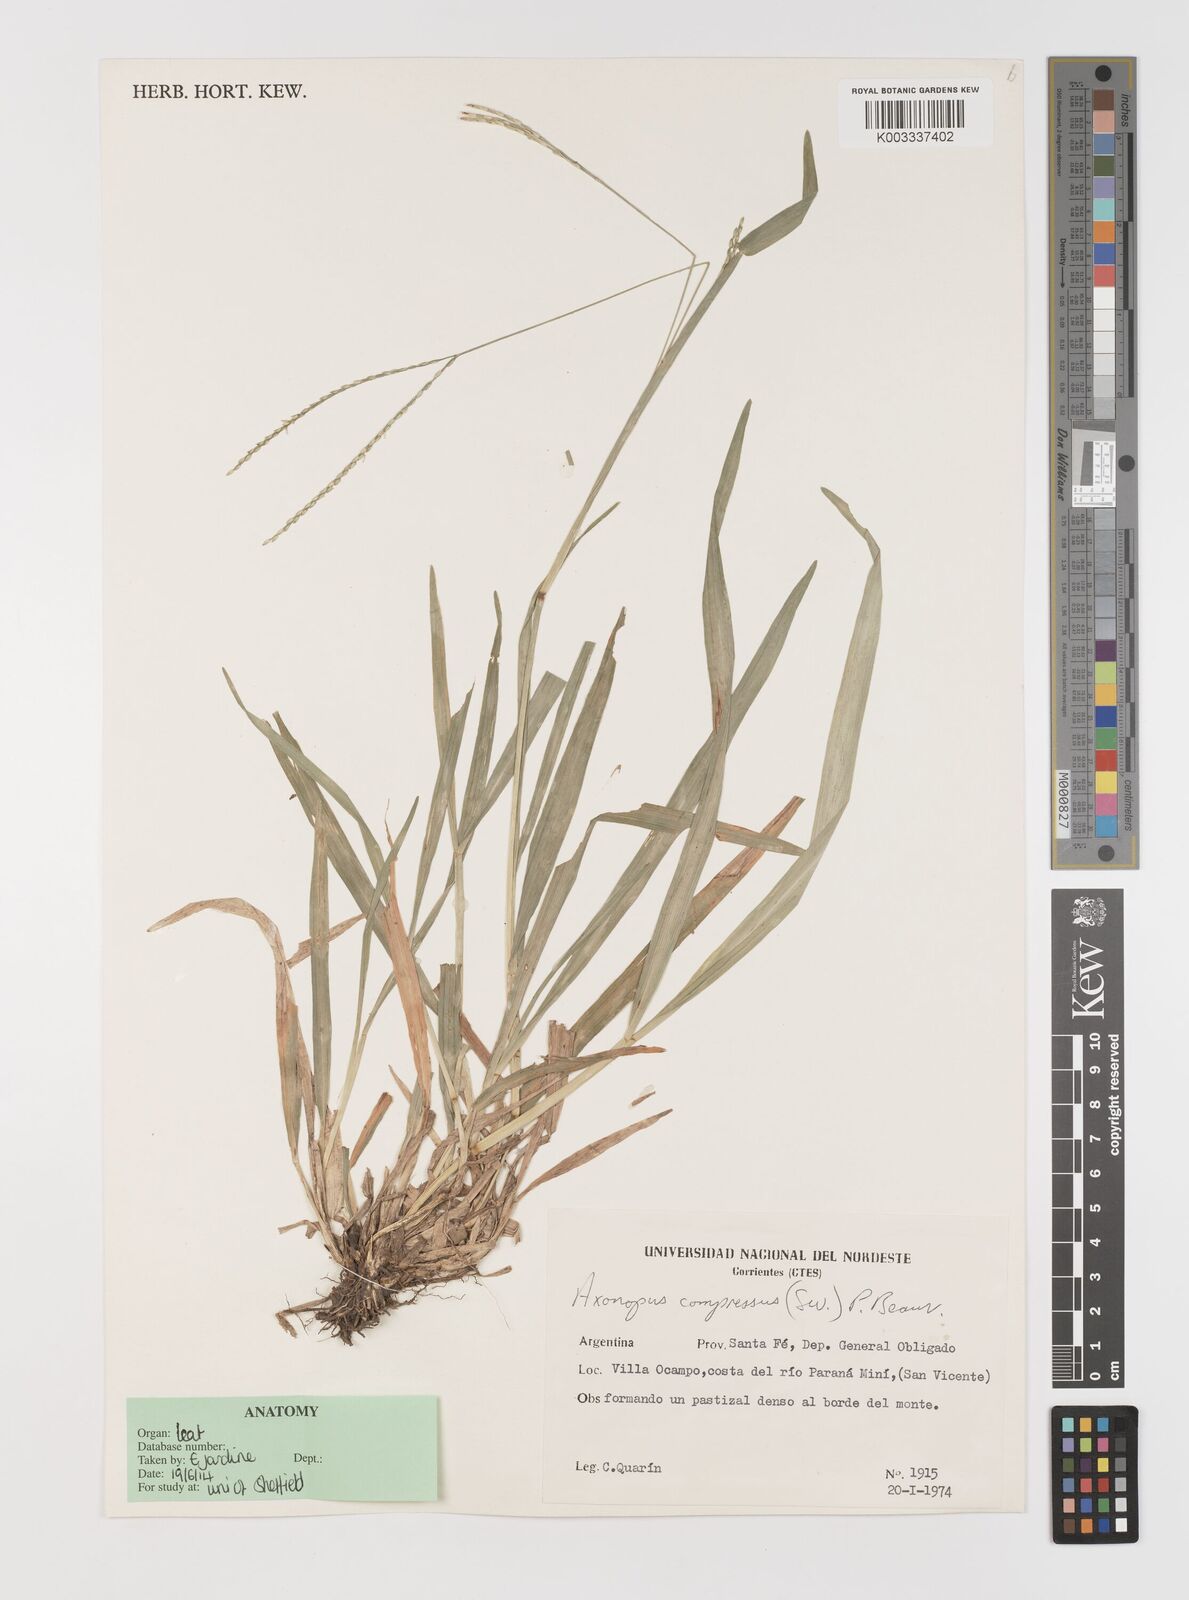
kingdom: Plantae
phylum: Tracheophyta
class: Liliopsida
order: Poales
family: Poaceae
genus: Axonopus
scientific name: Axonopus compressus
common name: American carpet grass
